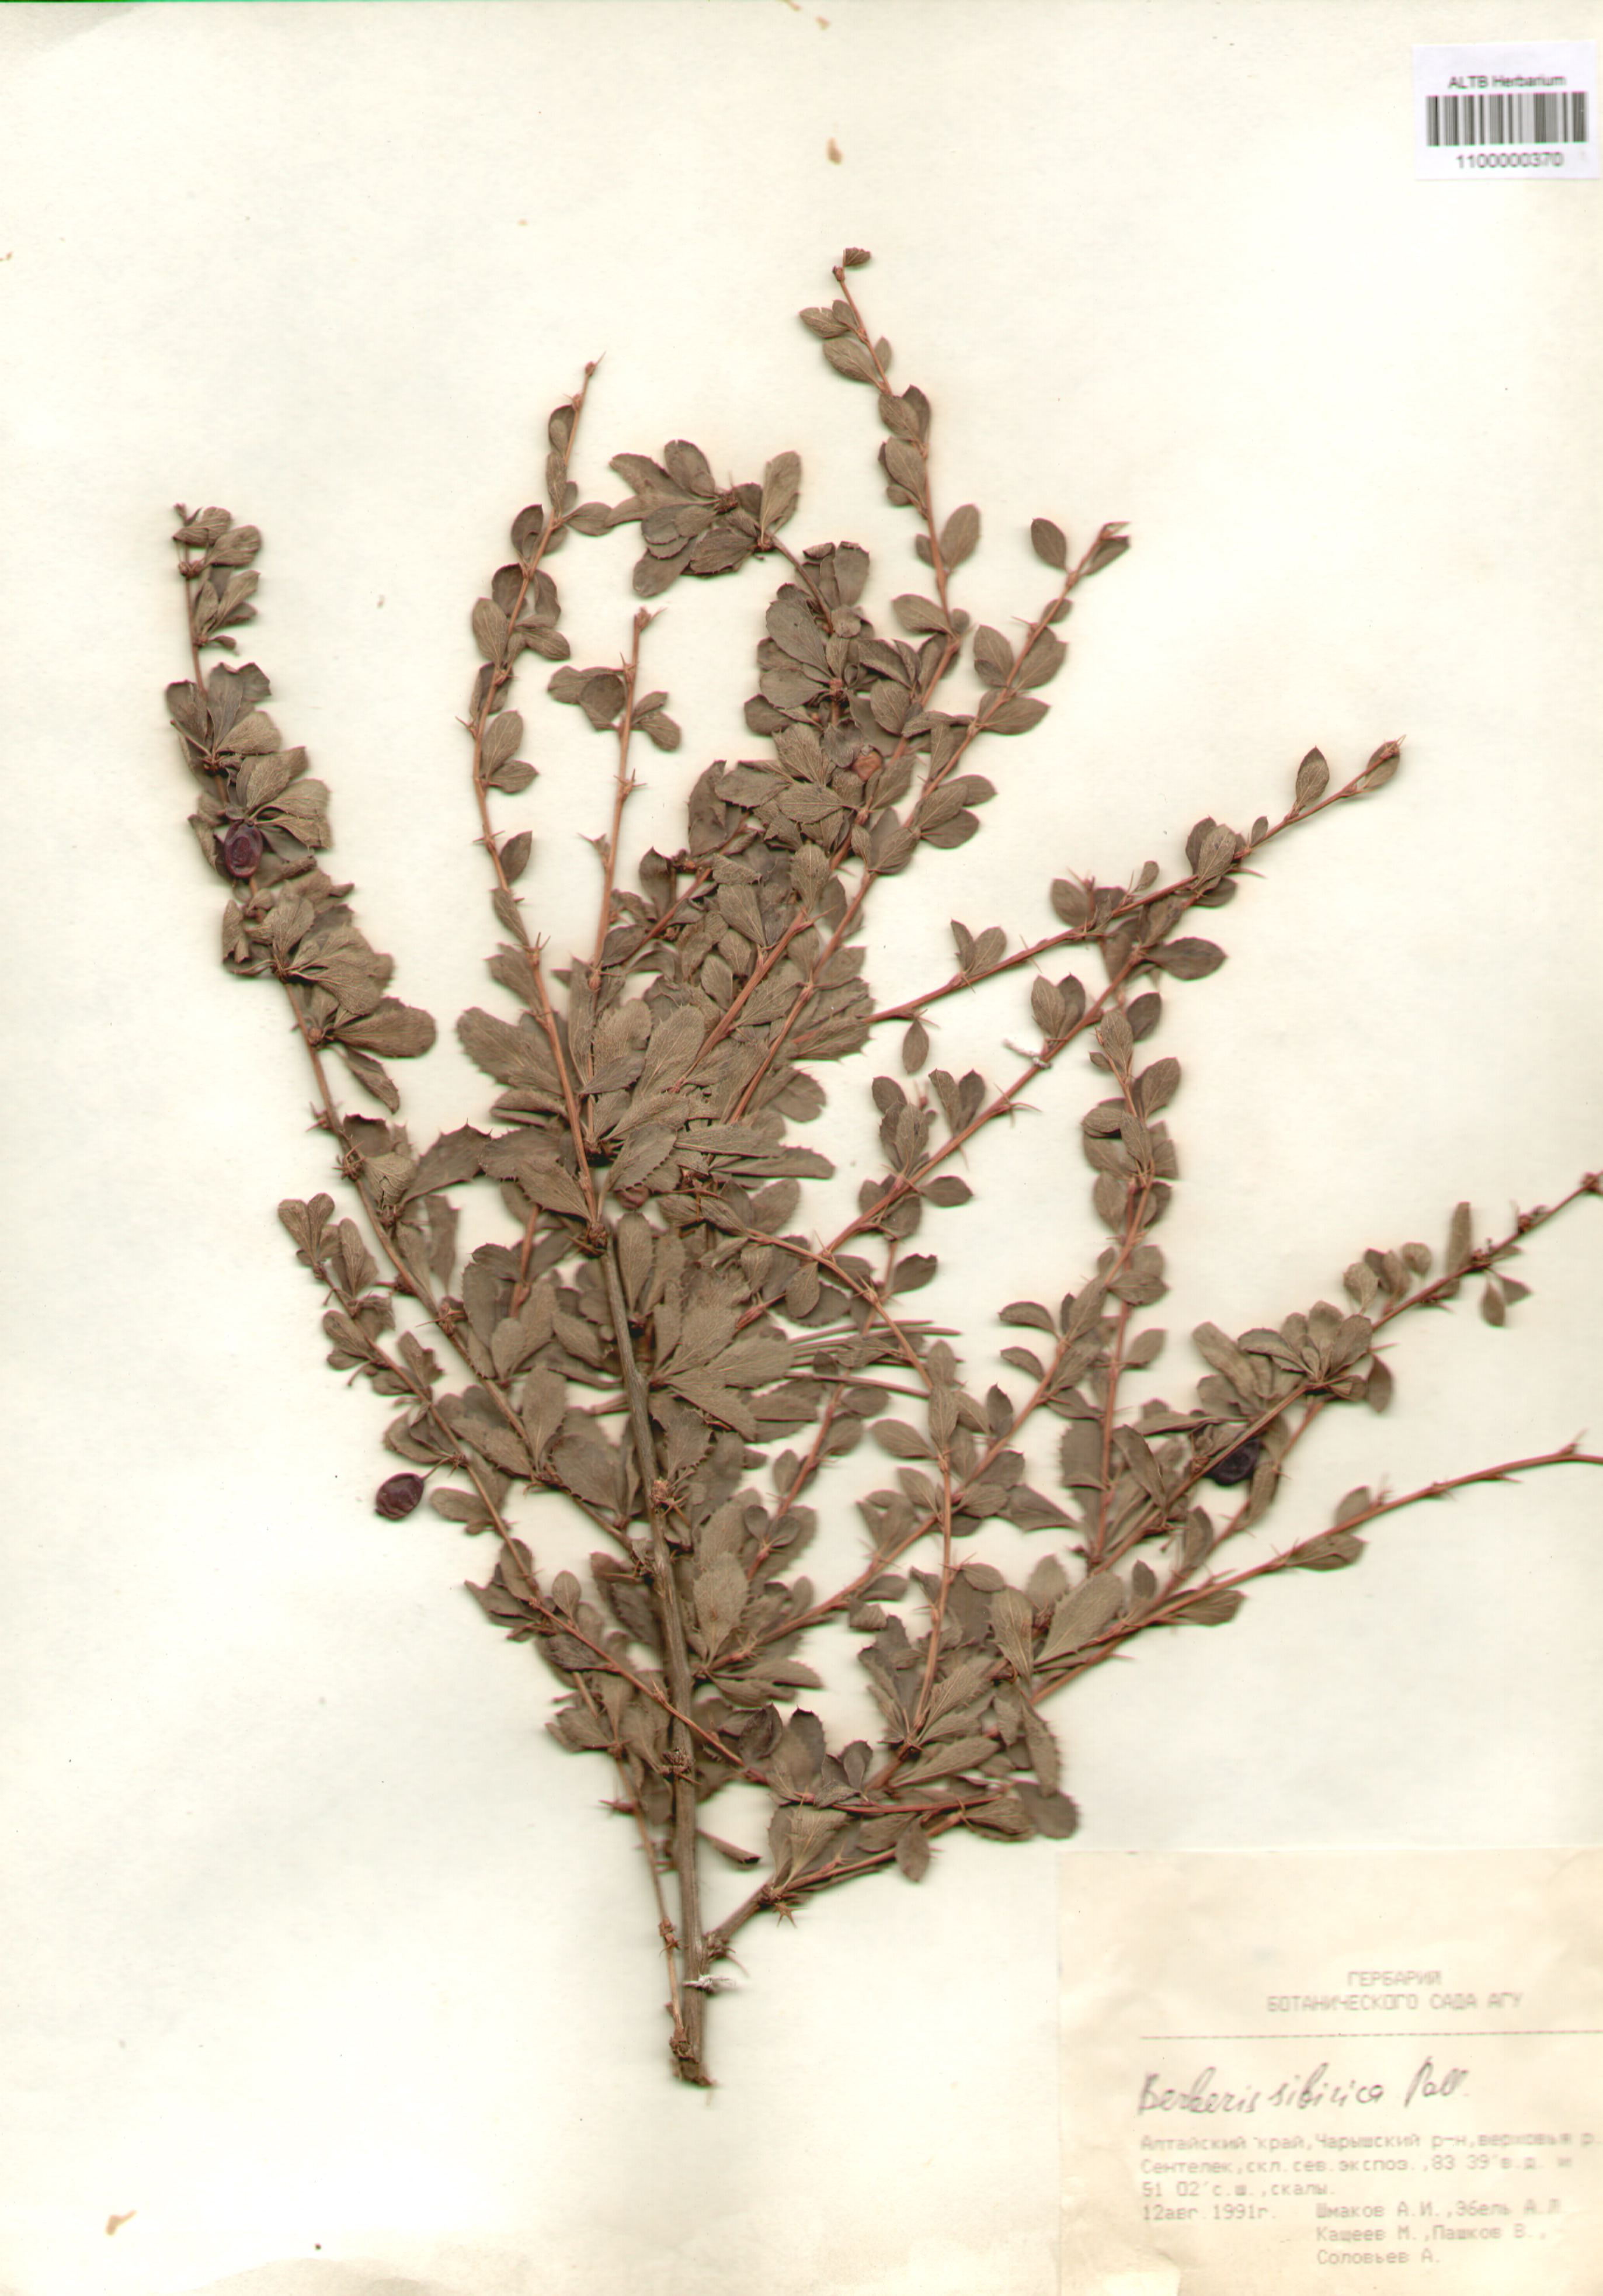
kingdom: Plantae
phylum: Tracheophyta
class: Magnoliopsida
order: Ranunculales
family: Berberidaceae
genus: Berberis
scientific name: Berberis sibirica
